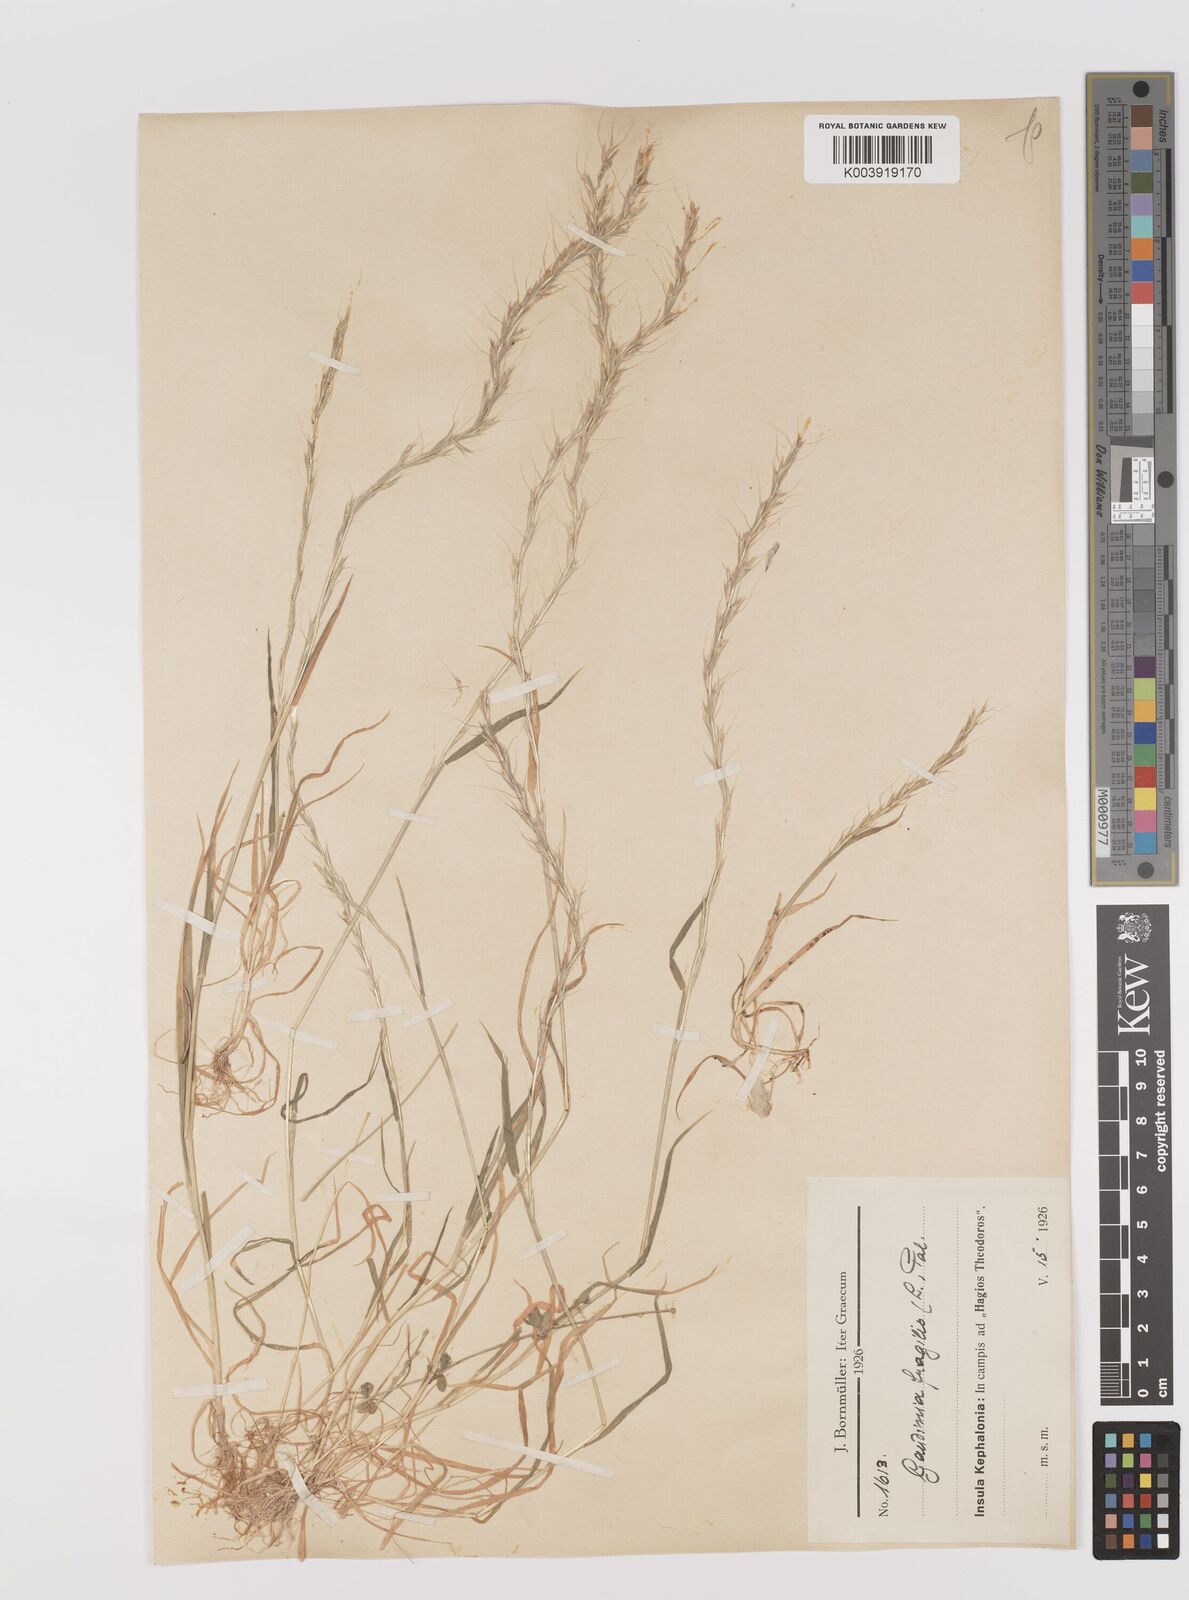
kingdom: Plantae
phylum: Tracheophyta
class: Liliopsida
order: Poales
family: Poaceae
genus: Gaudinia
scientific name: Gaudinia fragilis
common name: French oat-grass
